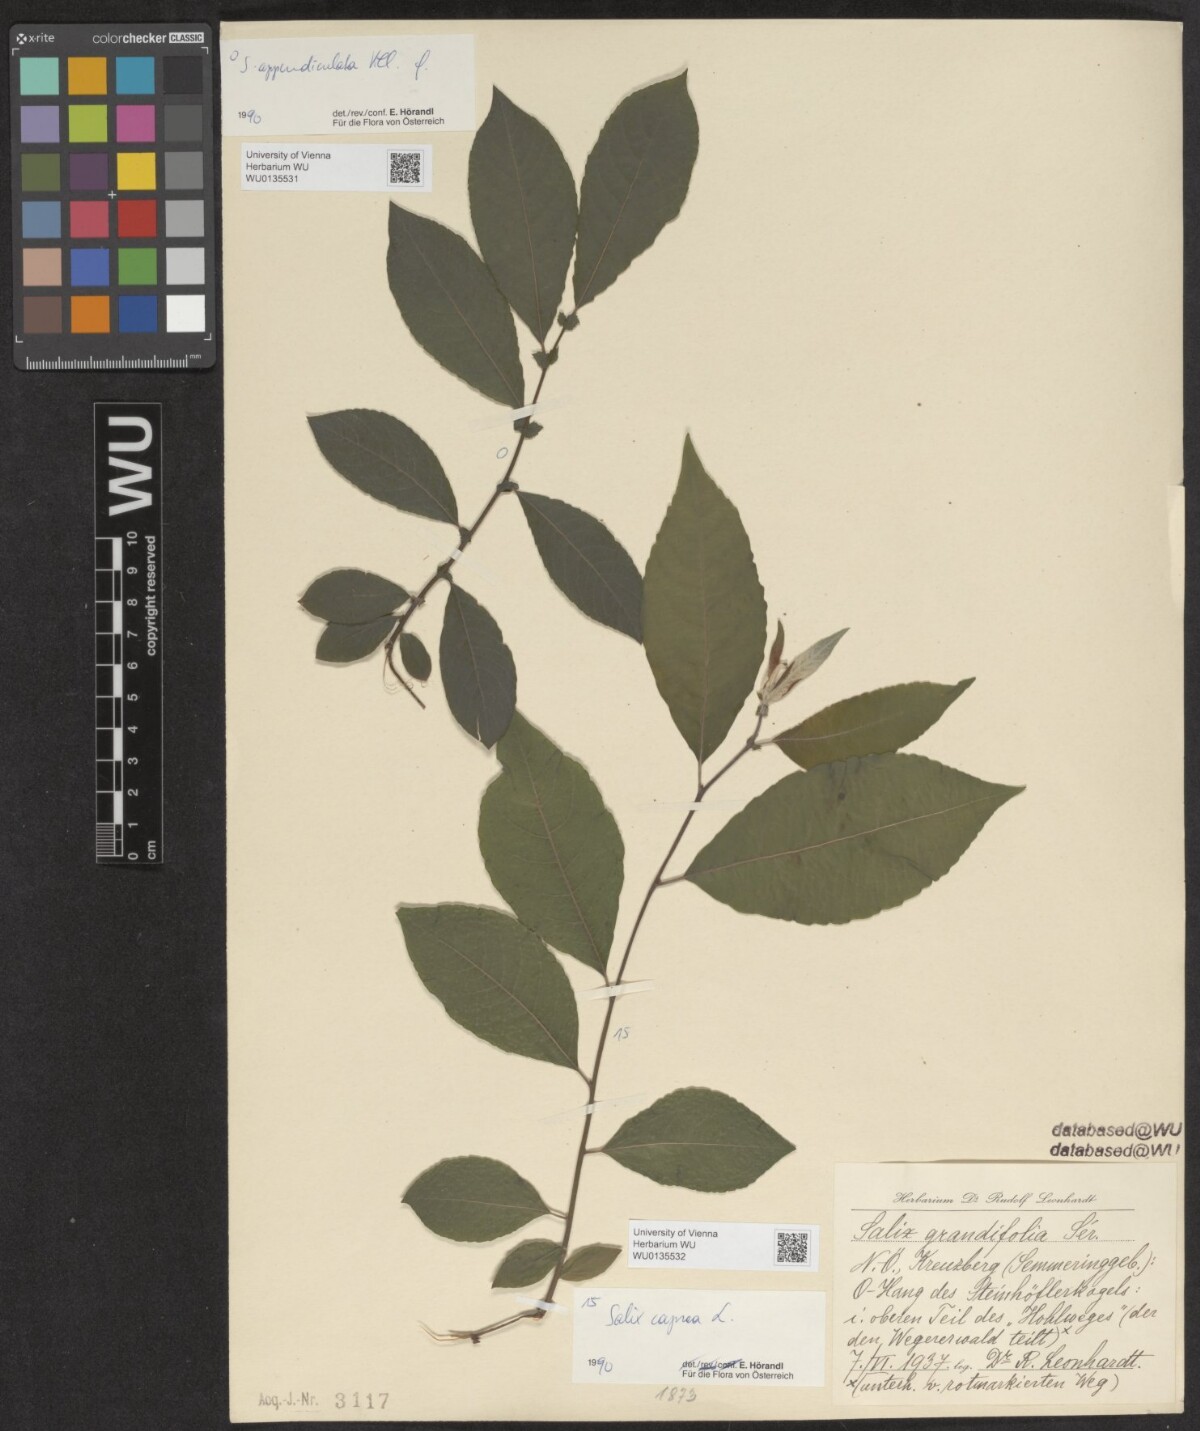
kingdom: Plantae
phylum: Tracheophyta
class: Magnoliopsida
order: Malpighiales
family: Salicaceae
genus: Salix
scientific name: Salix caprea
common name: Goat willow
